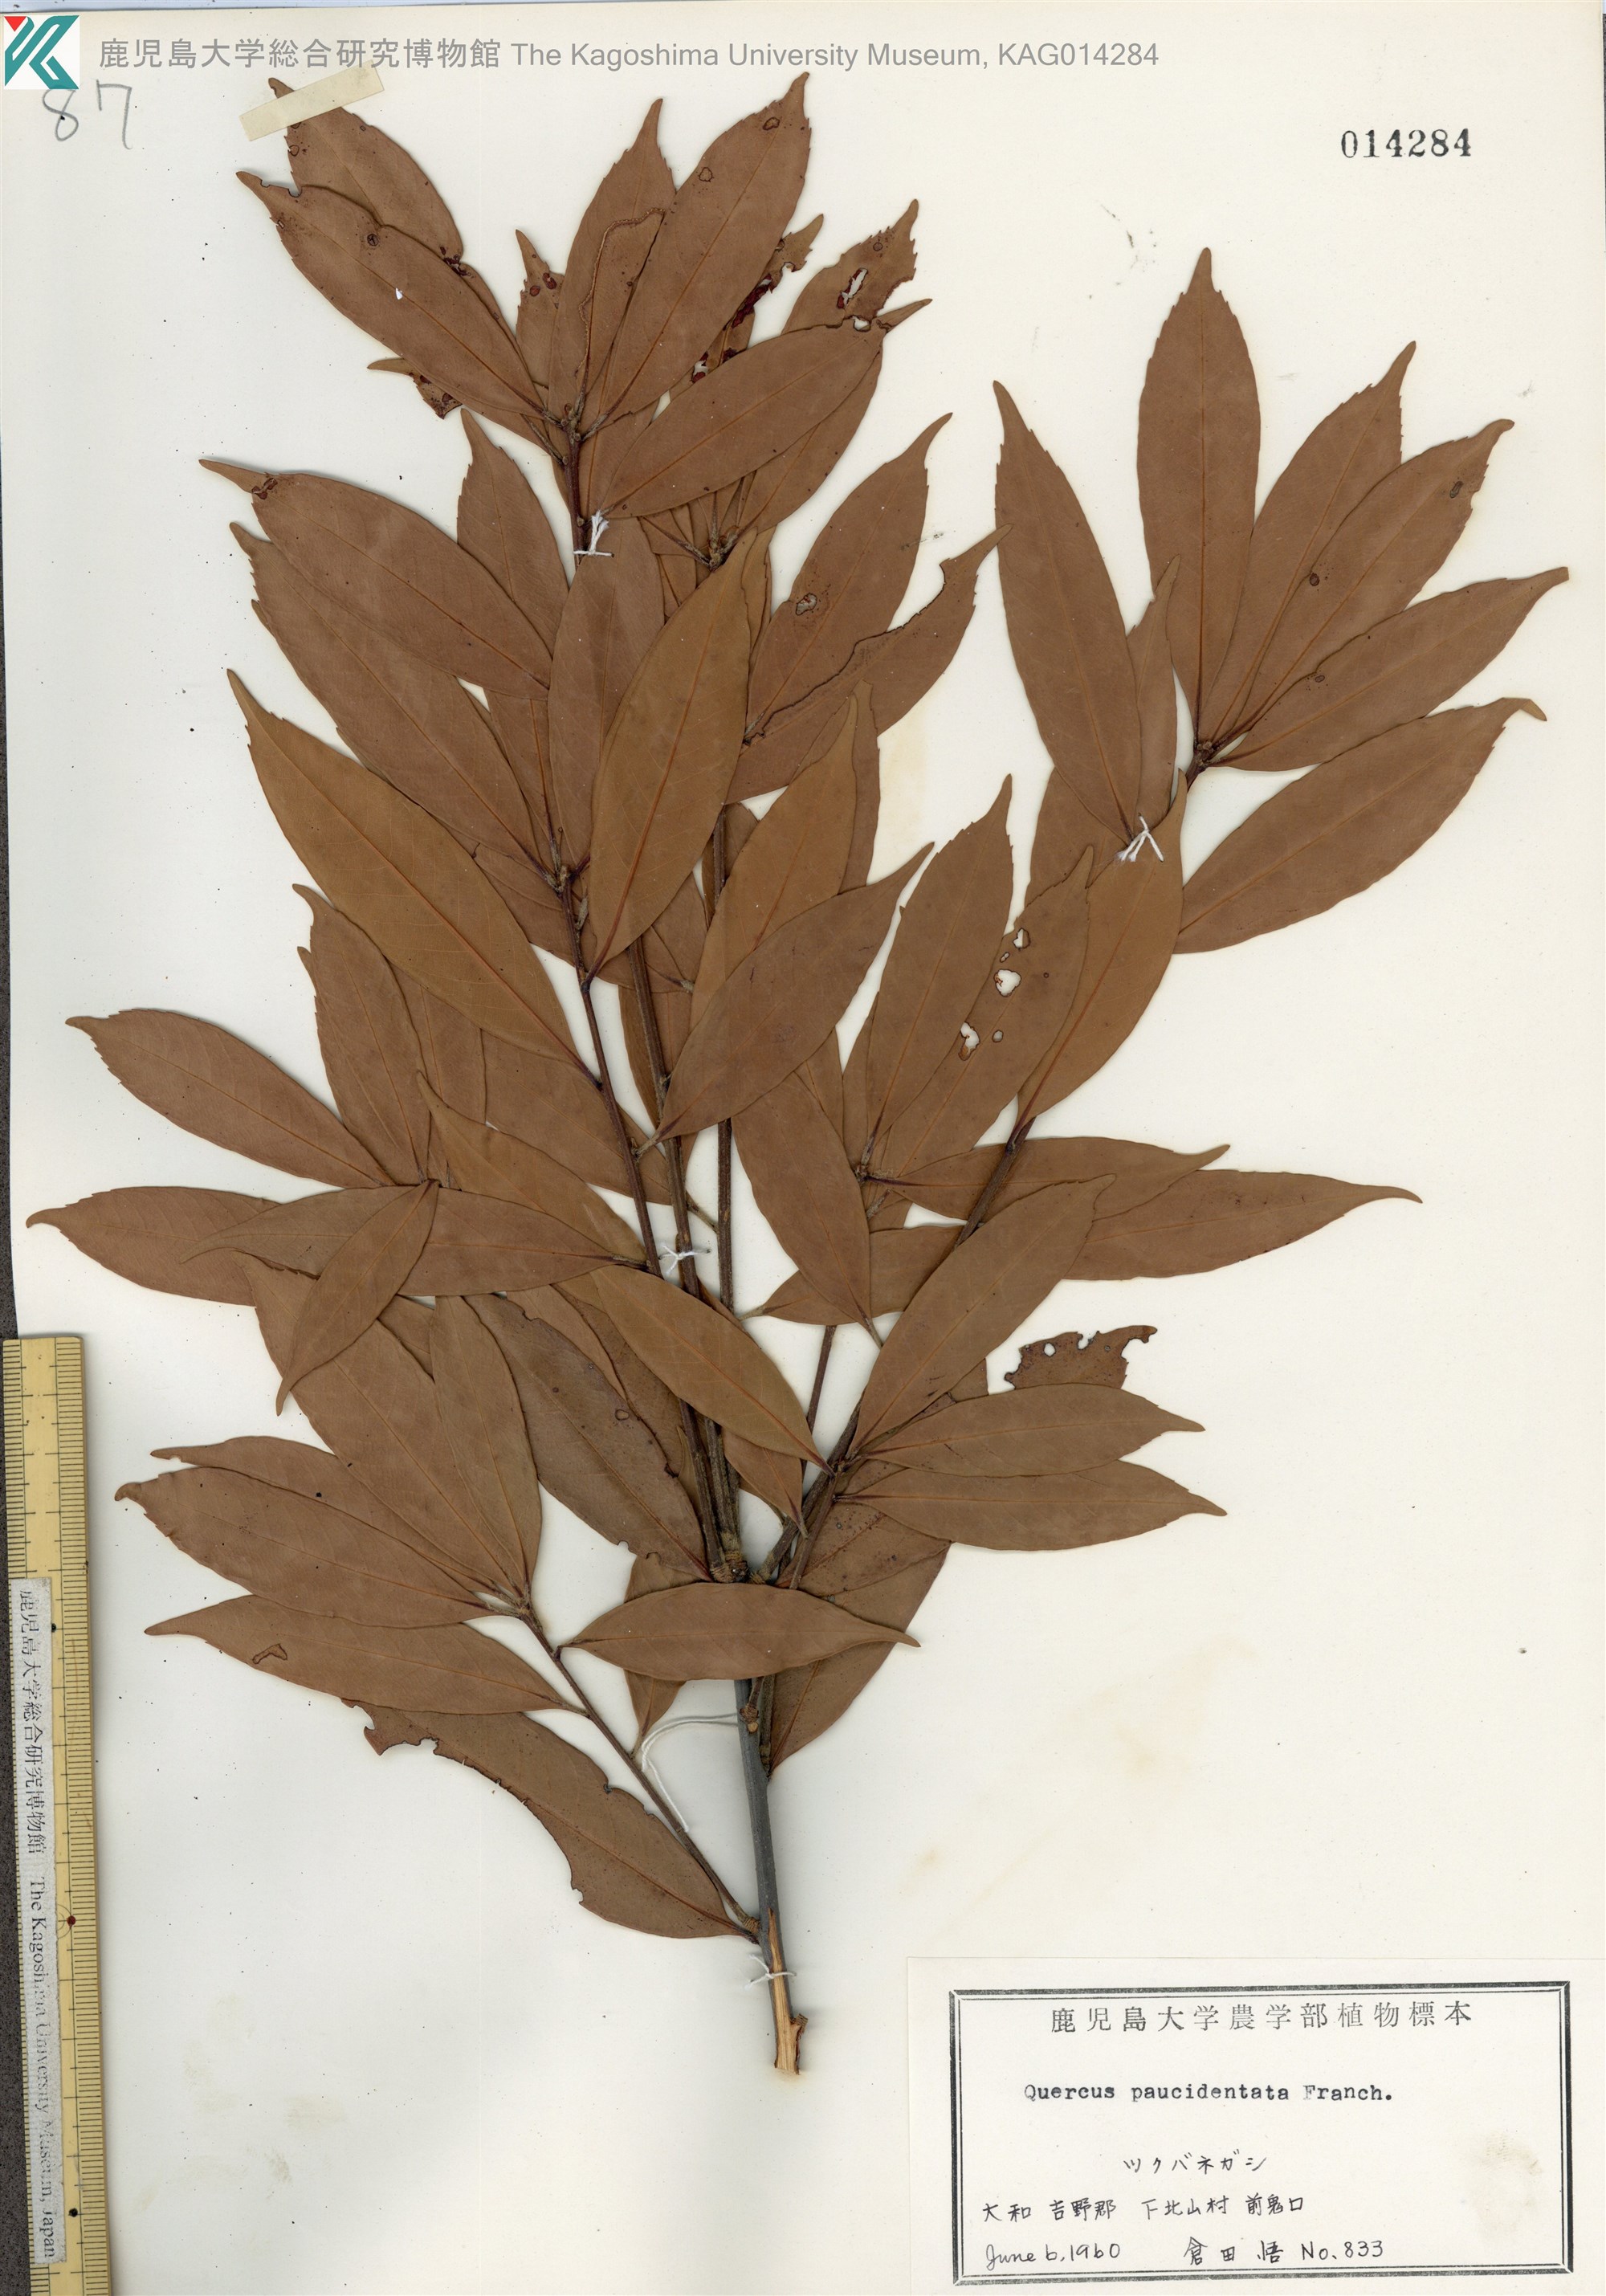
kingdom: Plantae
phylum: Tracheophyta
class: Magnoliopsida
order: Fagales
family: Fagaceae
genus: Quercus
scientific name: Quercus sessilifolia
